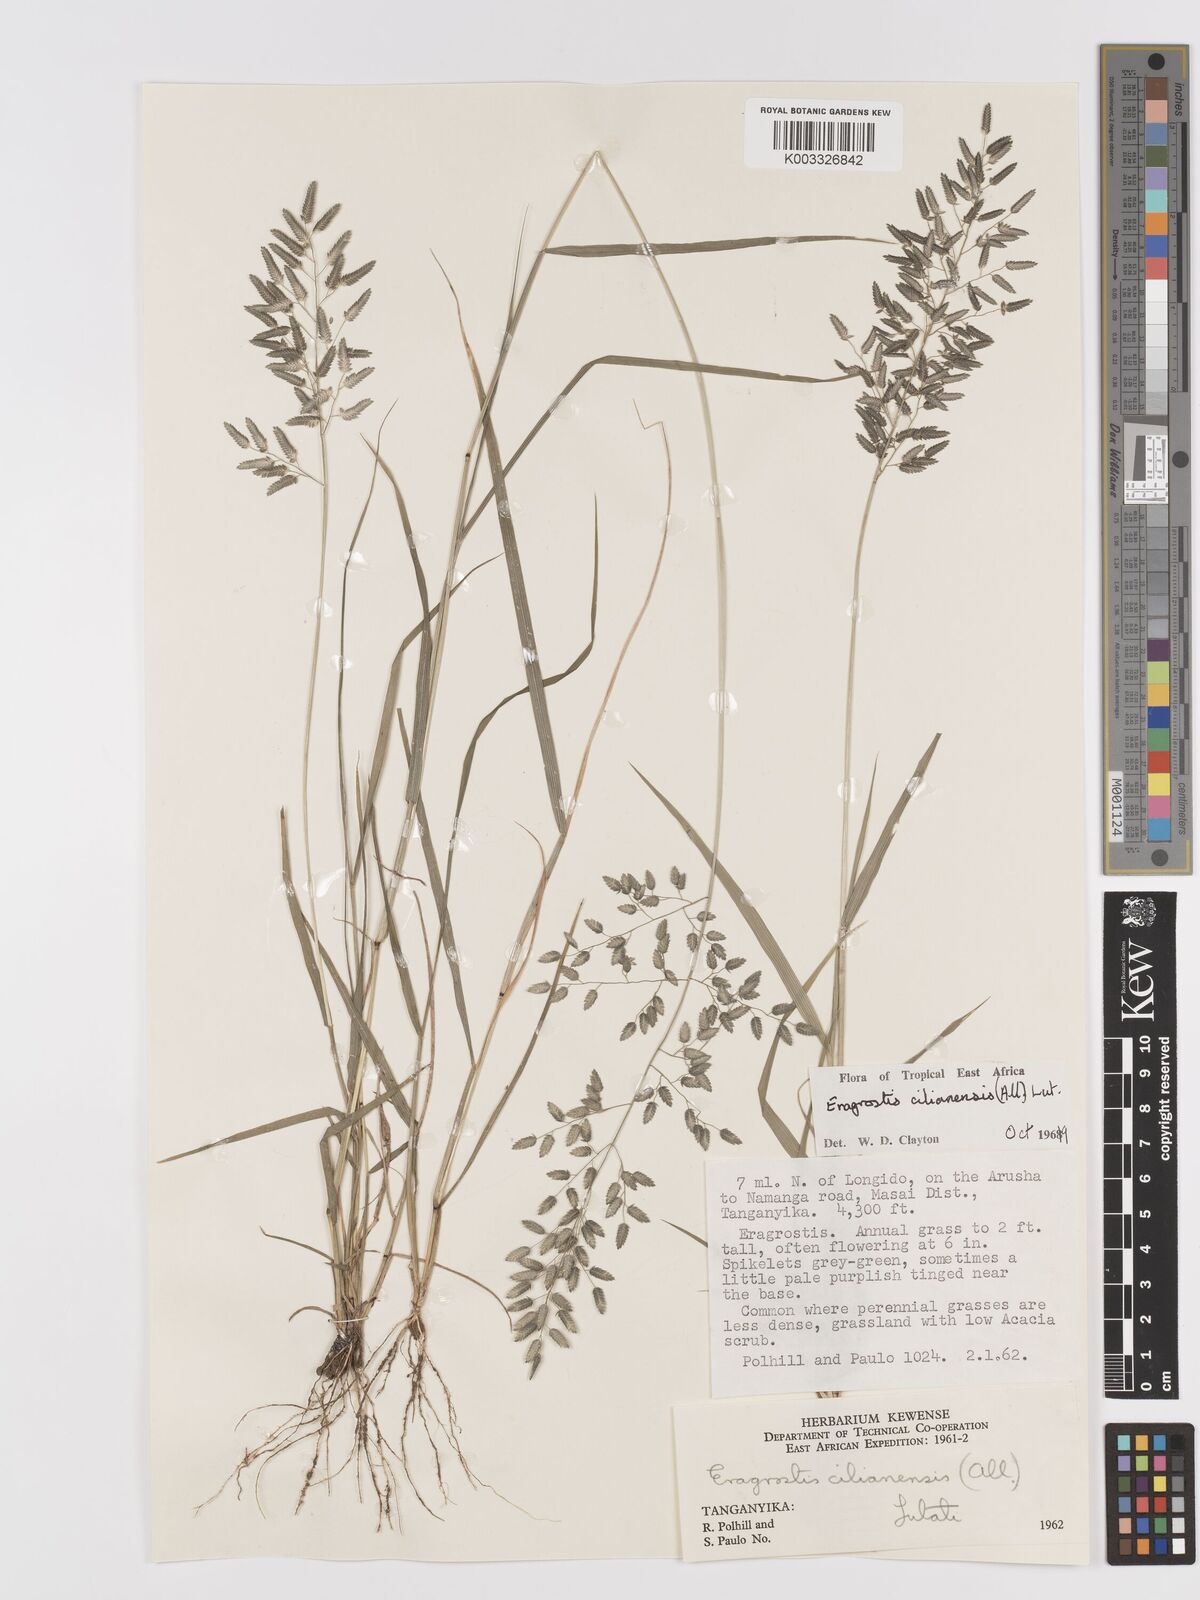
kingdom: Plantae
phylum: Tracheophyta
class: Liliopsida
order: Poales
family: Poaceae
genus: Eragrostis
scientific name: Eragrostis cilianensis
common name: Stinkgrass
